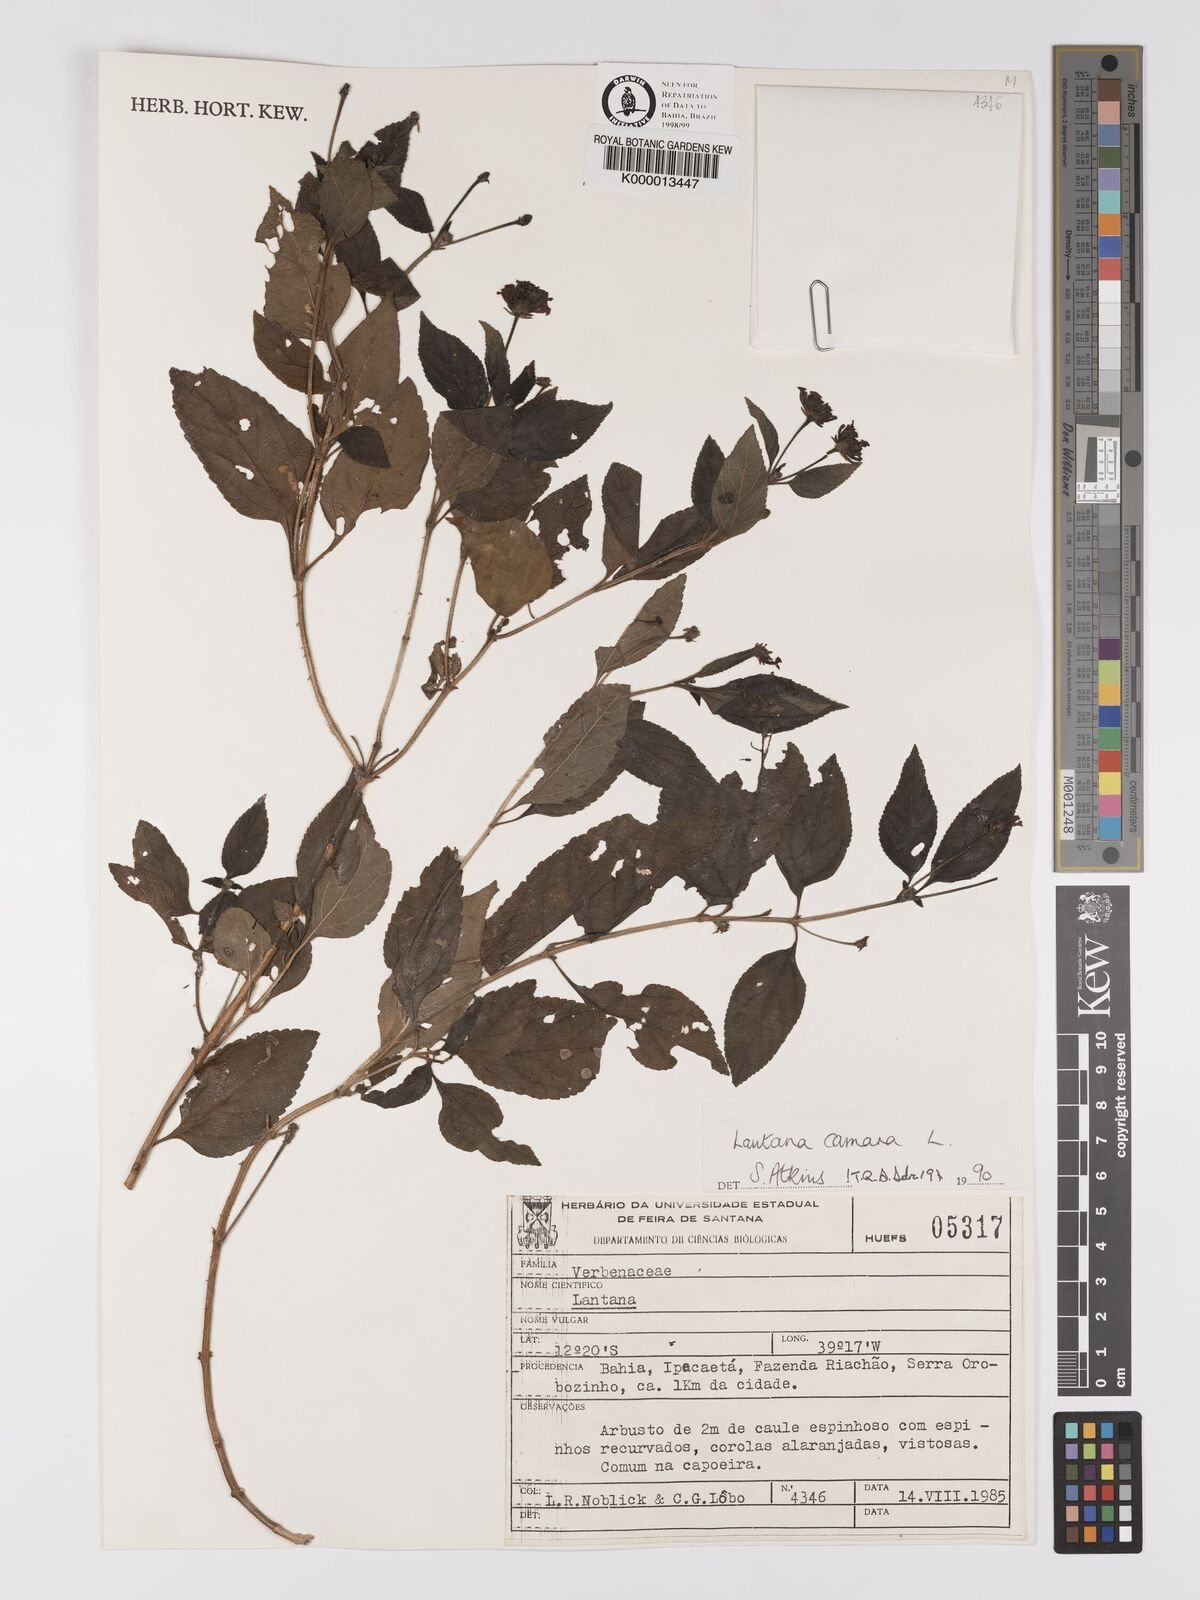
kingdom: Plantae
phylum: Tracheophyta
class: Magnoliopsida
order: Lamiales
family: Verbenaceae
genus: Lantana
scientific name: Lantana camara
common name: Lantana
